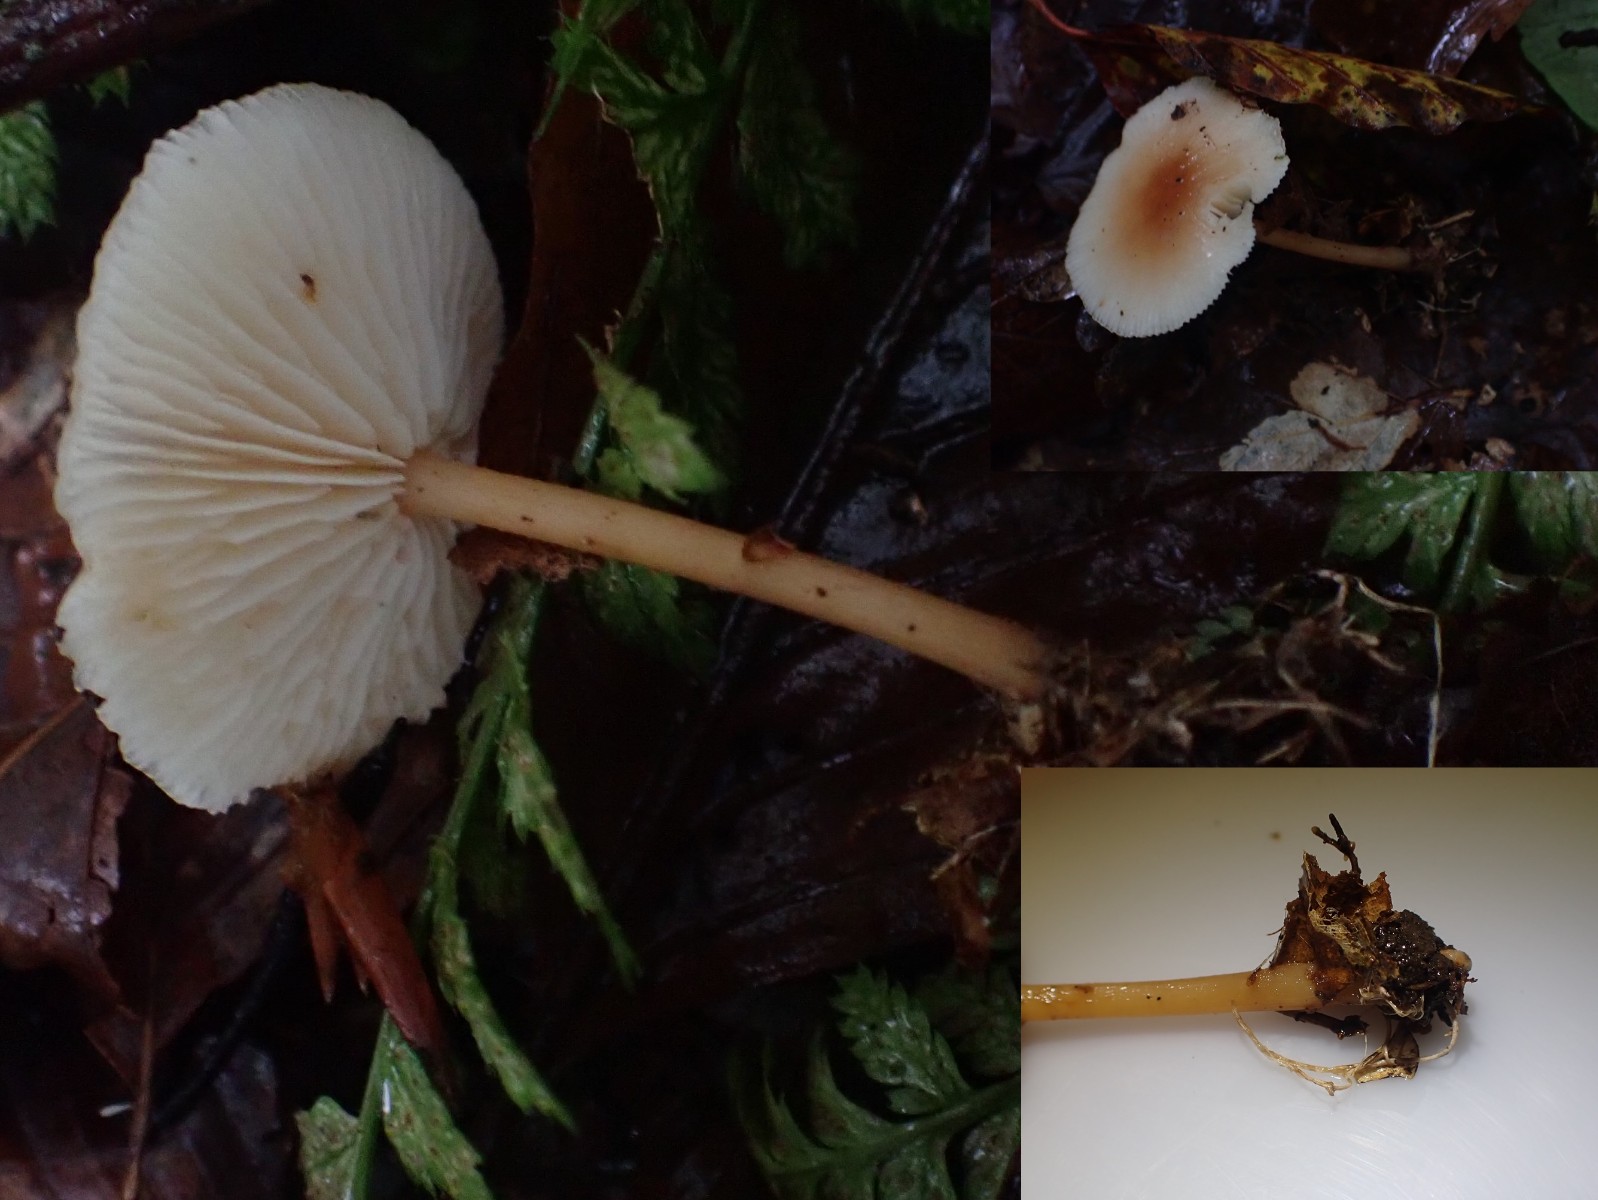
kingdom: Fungi
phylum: Basidiomycota
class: Agaricomycetes
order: Agaricales
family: Omphalotaceae
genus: Gymnopus
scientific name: Gymnopus dryophilus
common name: løv-fladhat
